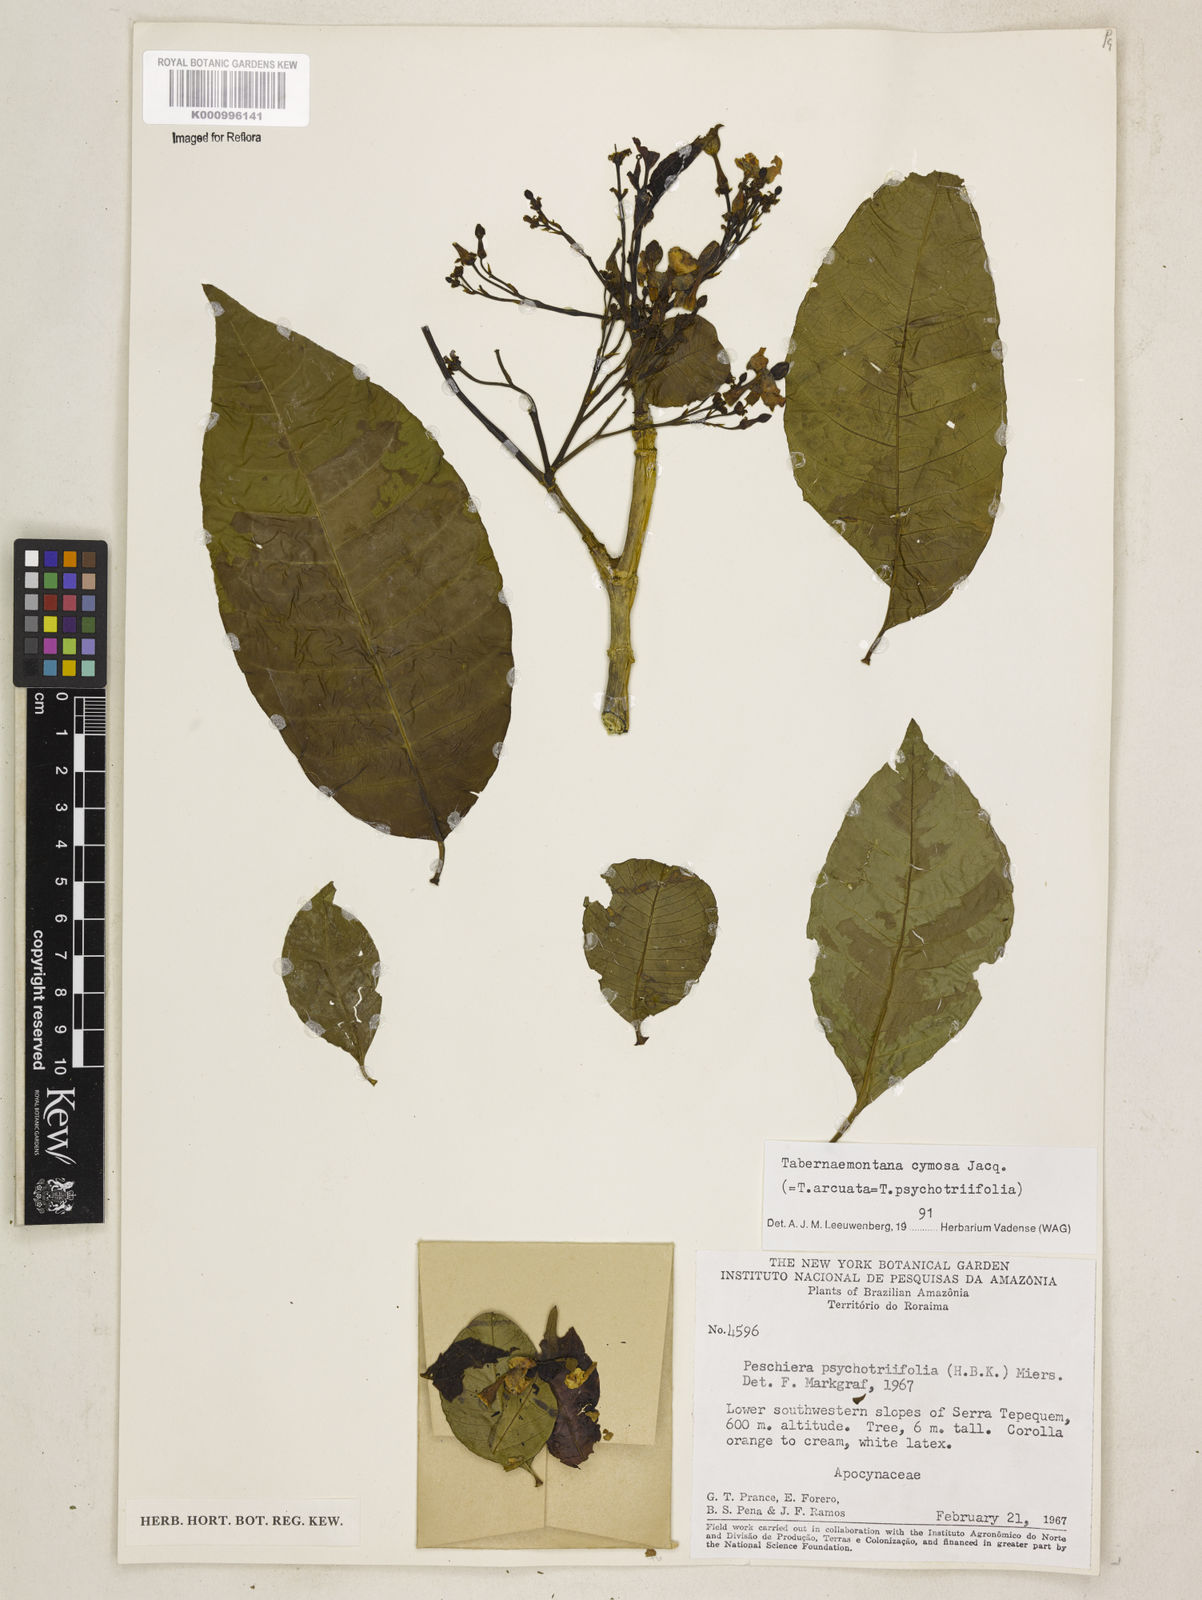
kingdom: Plantae
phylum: Tracheophyta
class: Magnoliopsida
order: Gentianales
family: Apocynaceae
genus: Tabernaemontana
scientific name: Tabernaemontana cymosa
